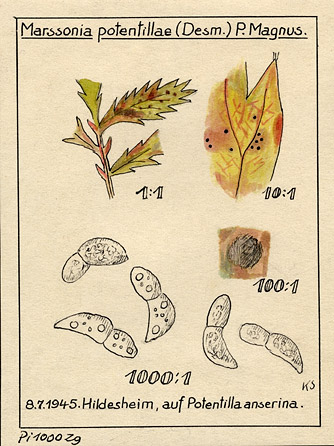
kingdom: Plantae
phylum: Tracheophyta
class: Magnoliopsida
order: Rosales
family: Rosaceae
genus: Argentina
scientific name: Argentina anserina
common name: Common silverweed
